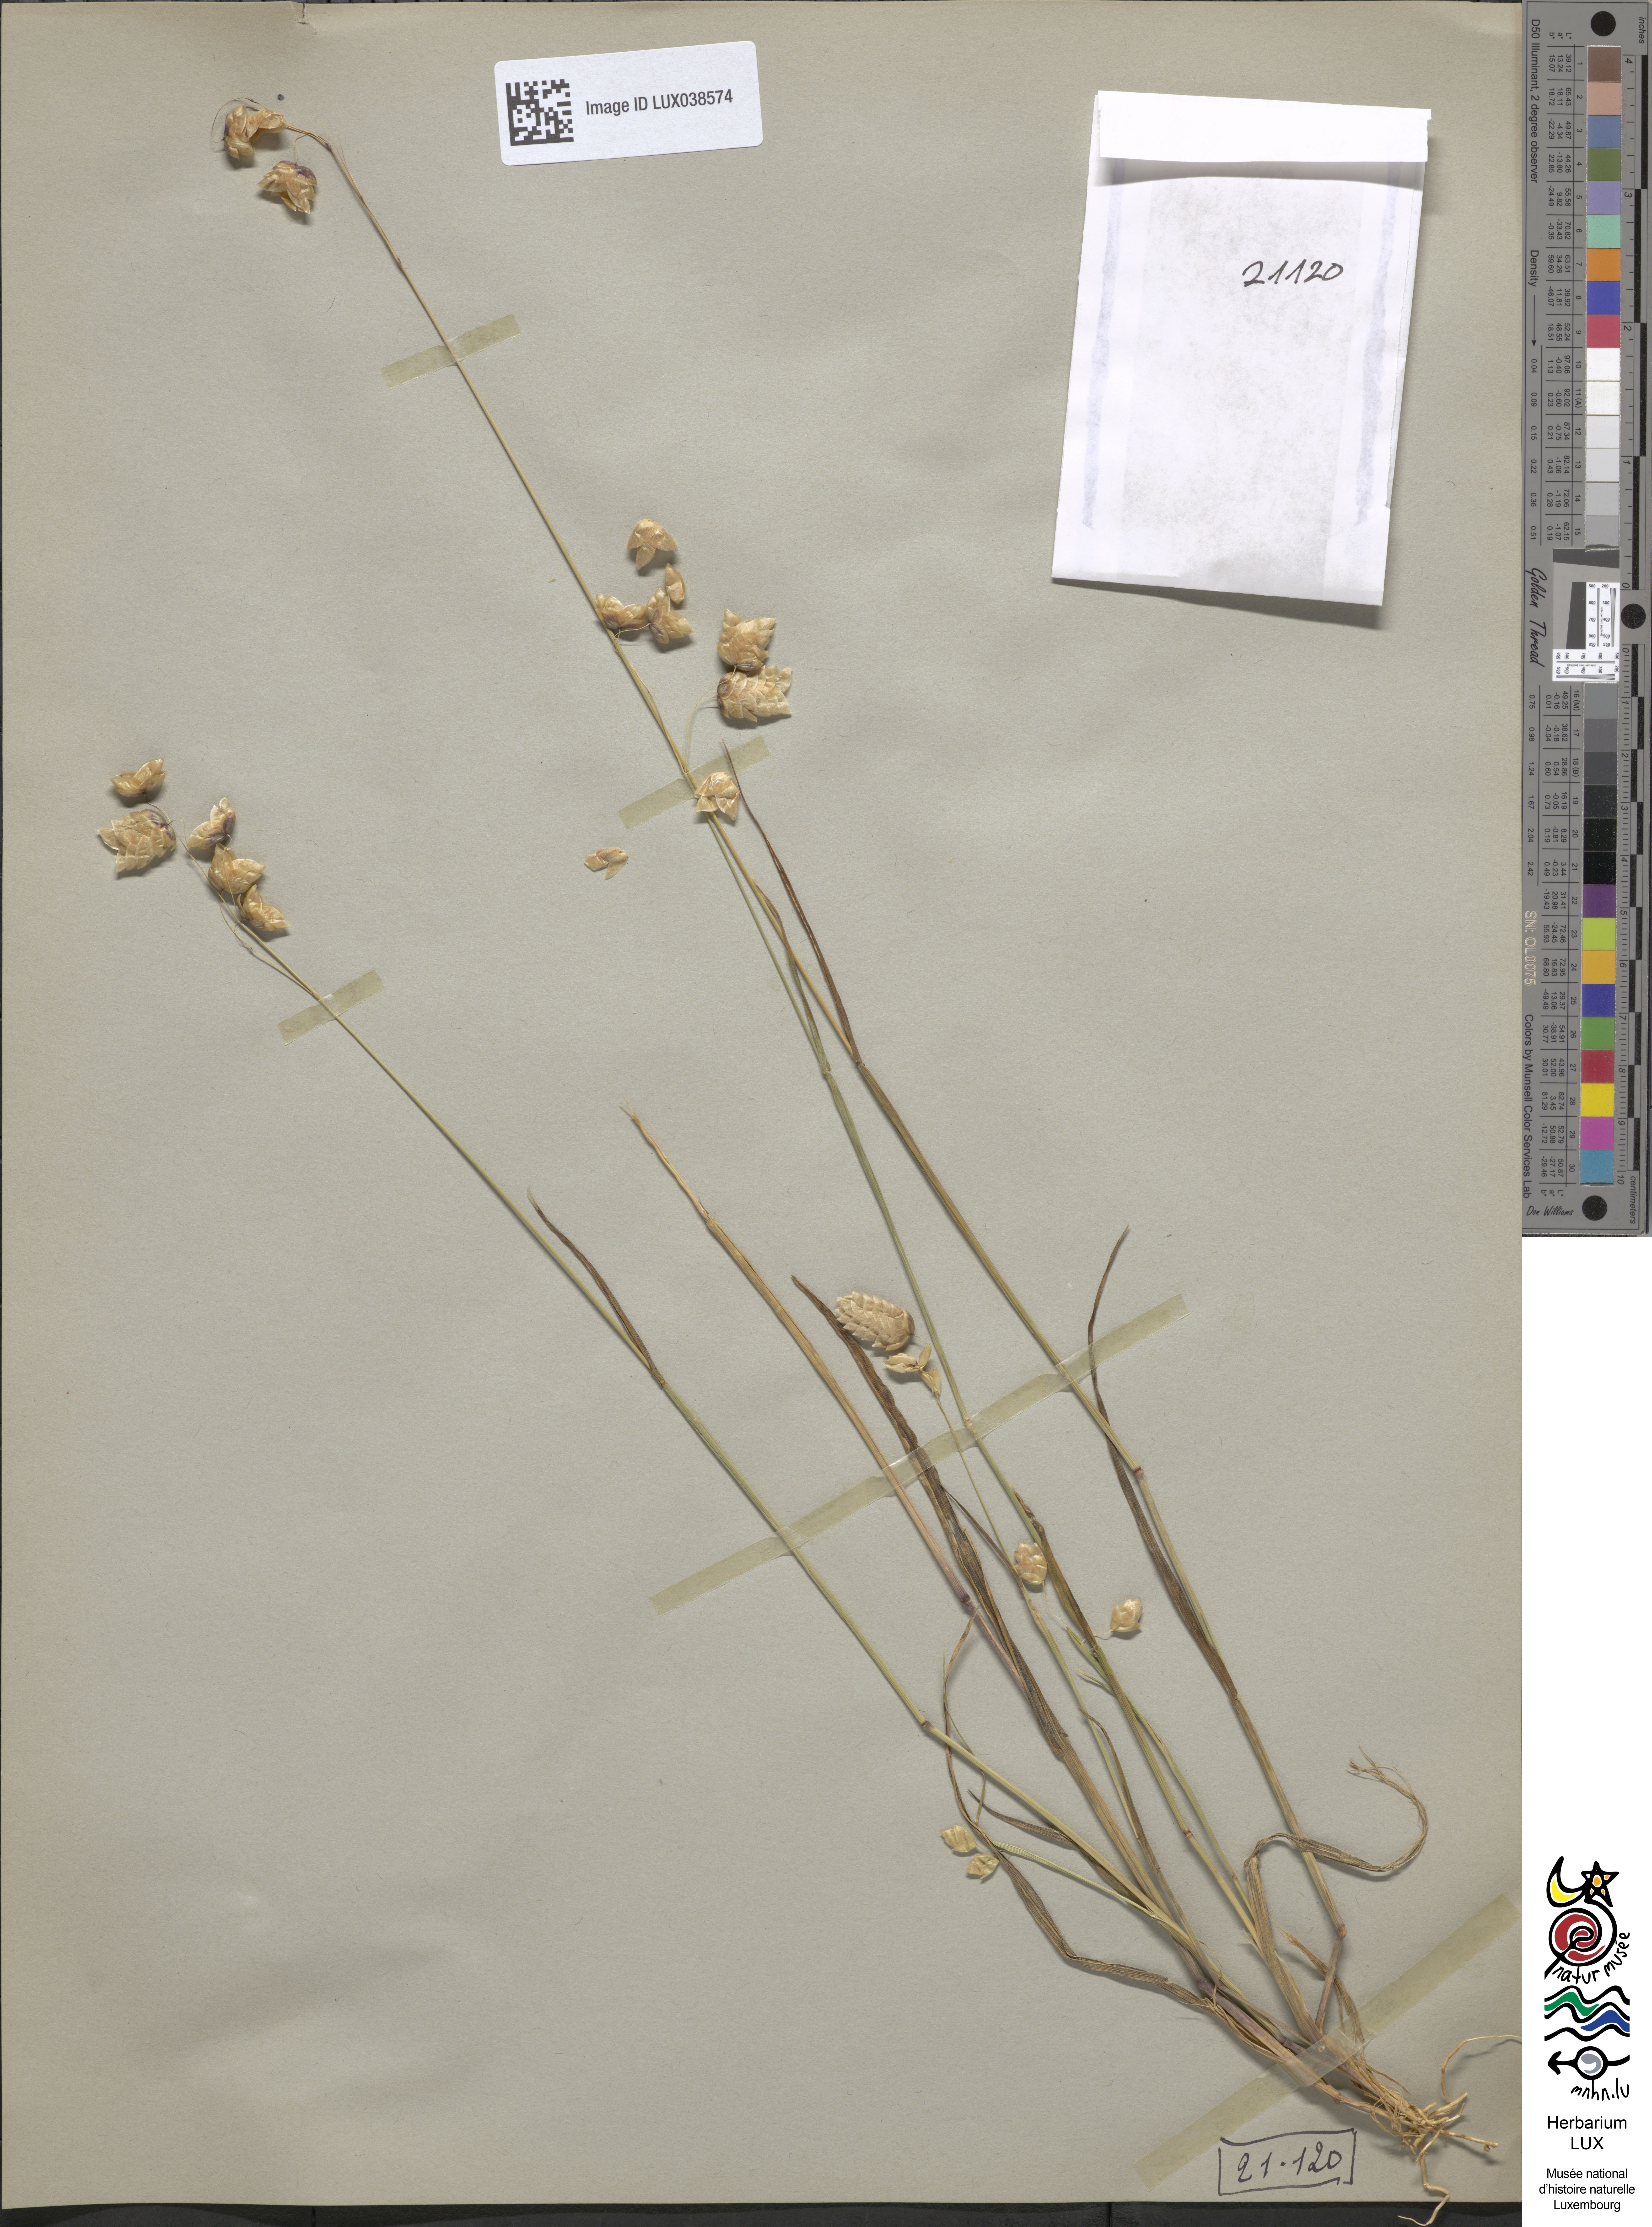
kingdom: Plantae
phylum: Tracheophyta
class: Liliopsida
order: Poales
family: Poaceae
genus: Briza
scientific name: Briza maxima
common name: Big quakinggrass
